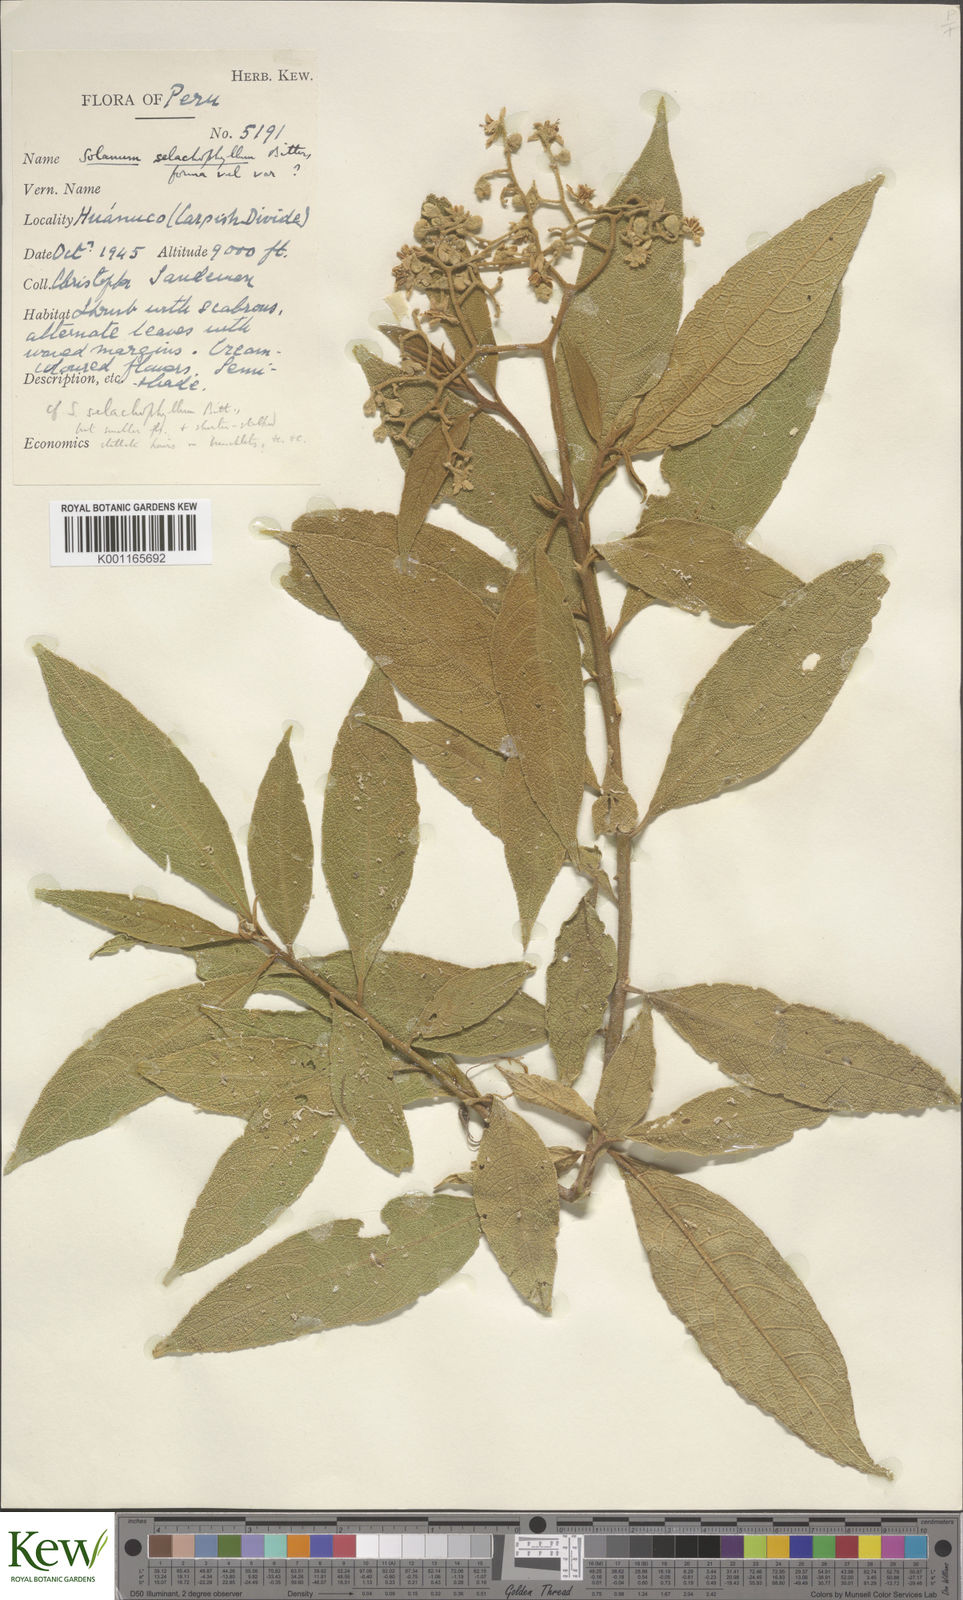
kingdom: Plantae
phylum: Tracheophyta
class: Magnoliopsida
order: Solanales
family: Solanaceae
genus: Solanum
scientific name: Solanum selachophyllum
